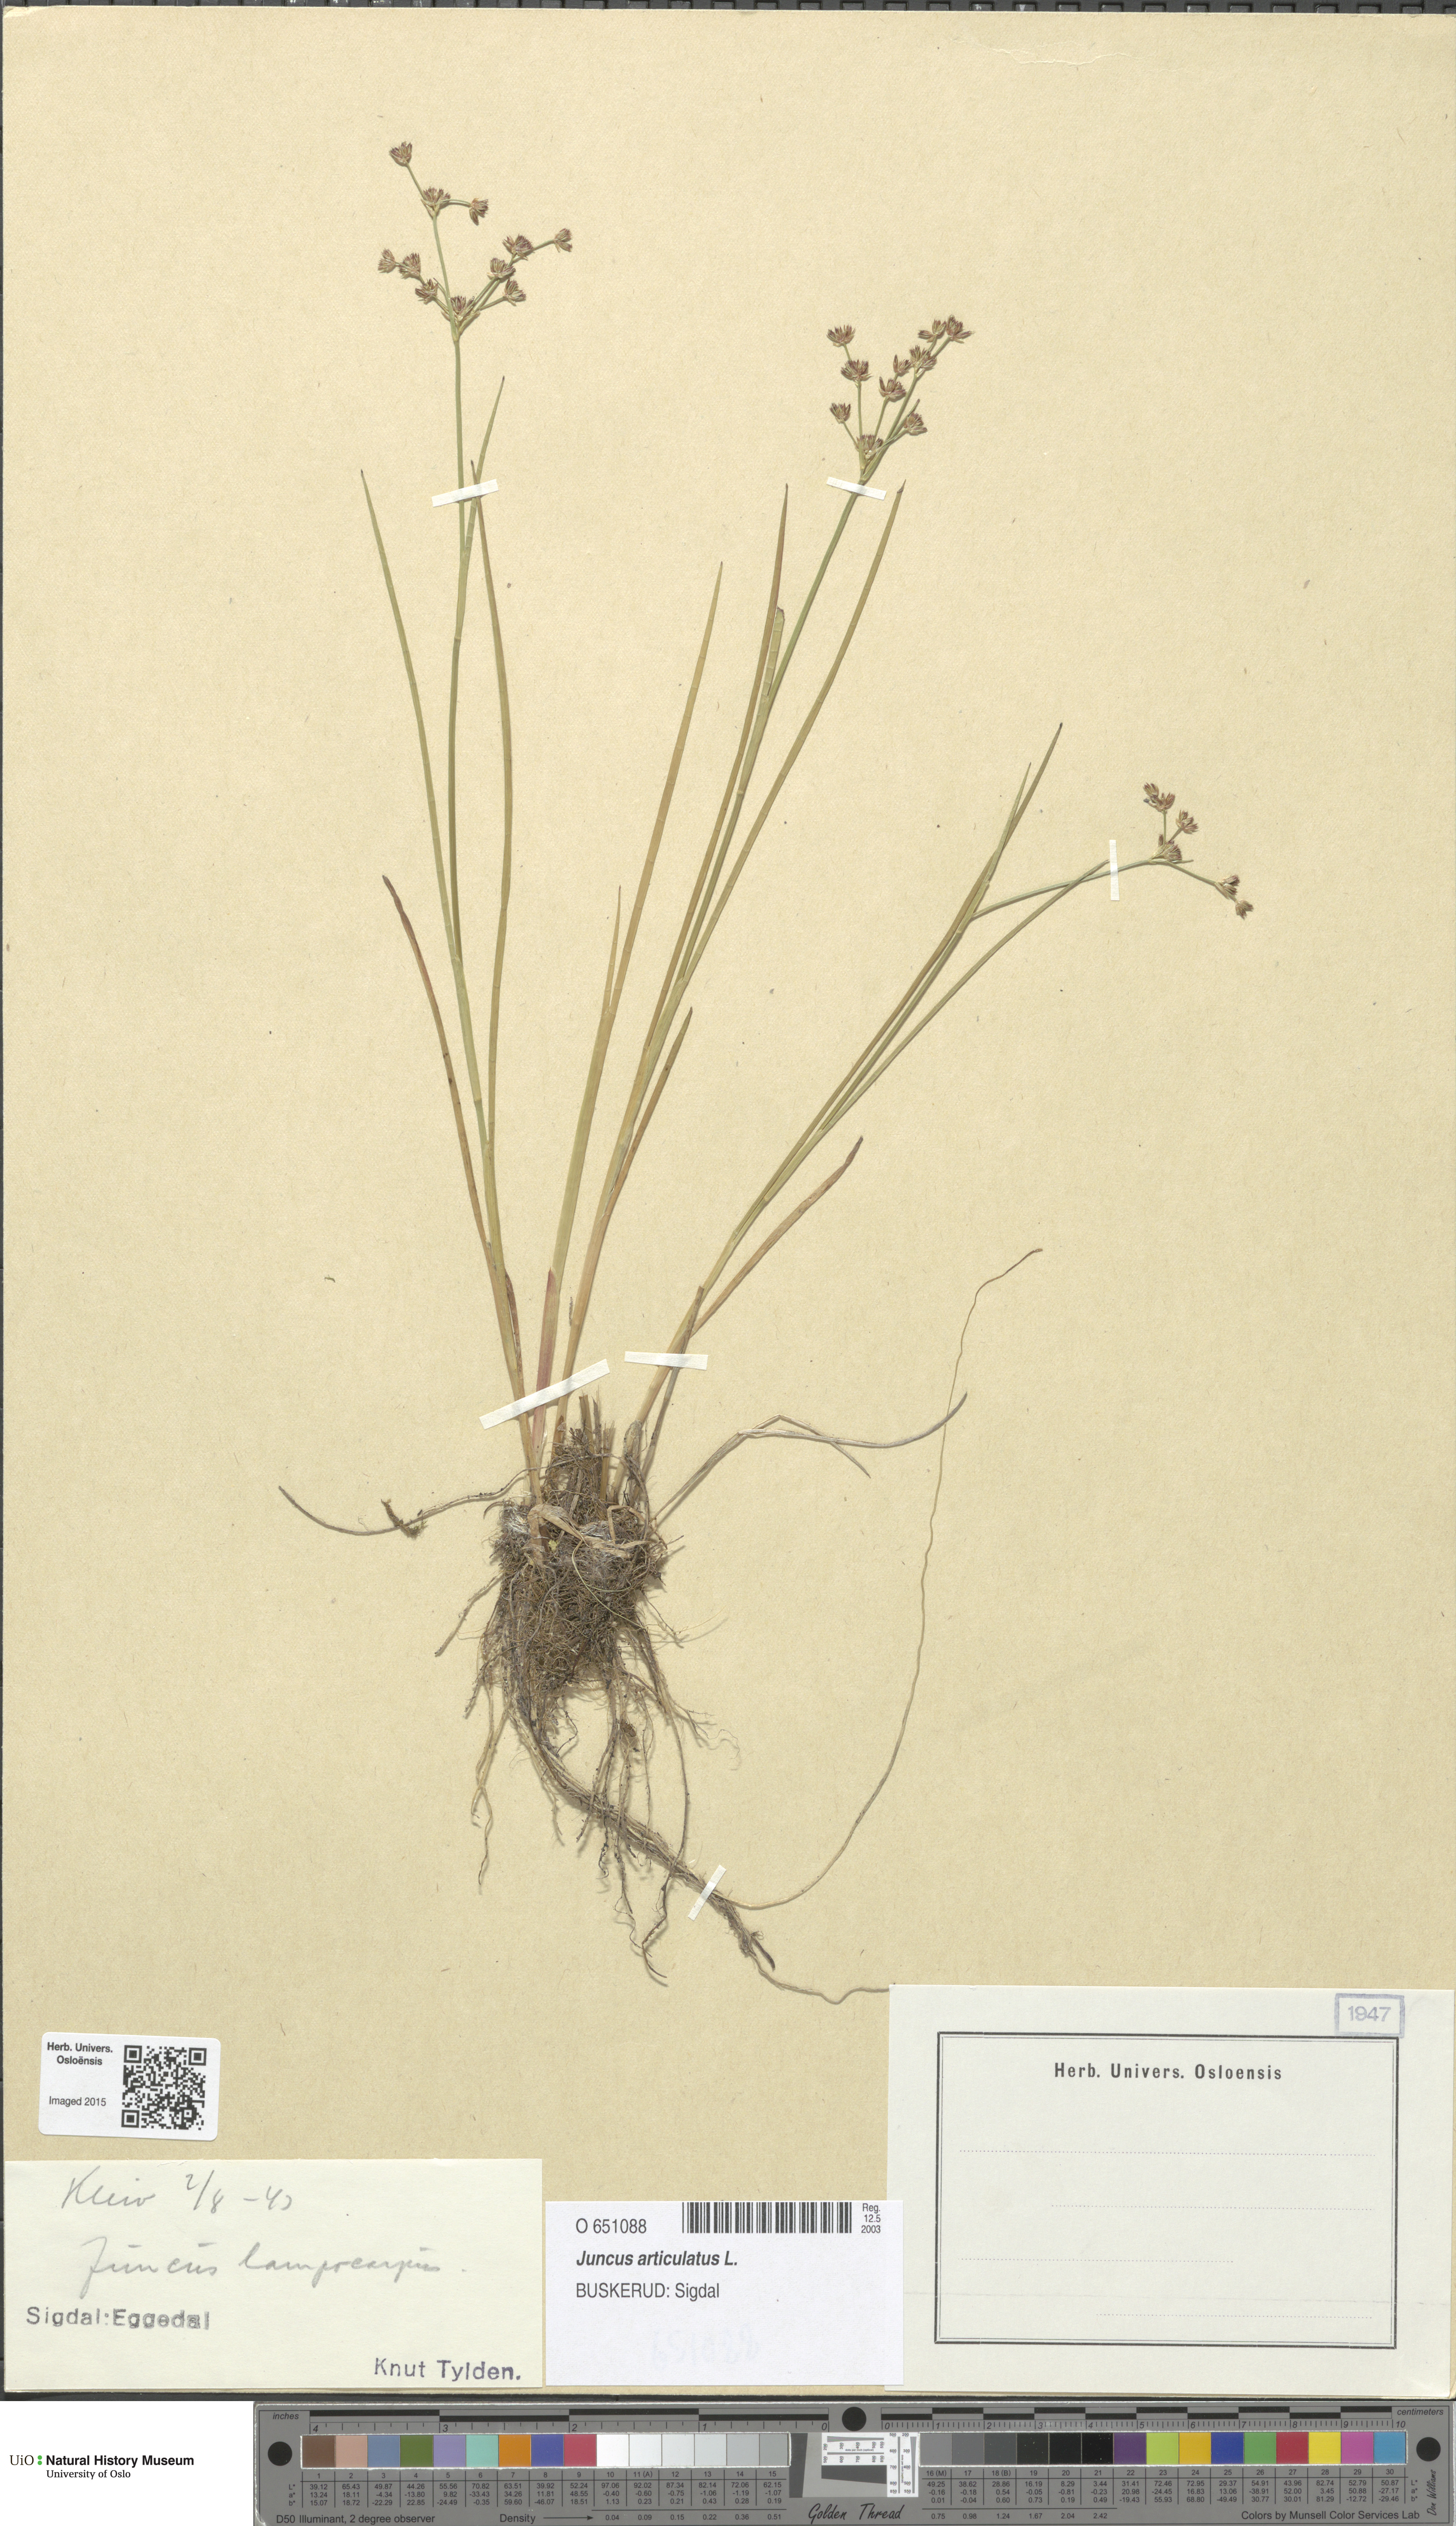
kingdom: Plantae
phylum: Tracheophyta
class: Liliopsida
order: Poales
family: Juncaceae
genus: Juncus
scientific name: Juncus articulatus
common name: Jointed rush
